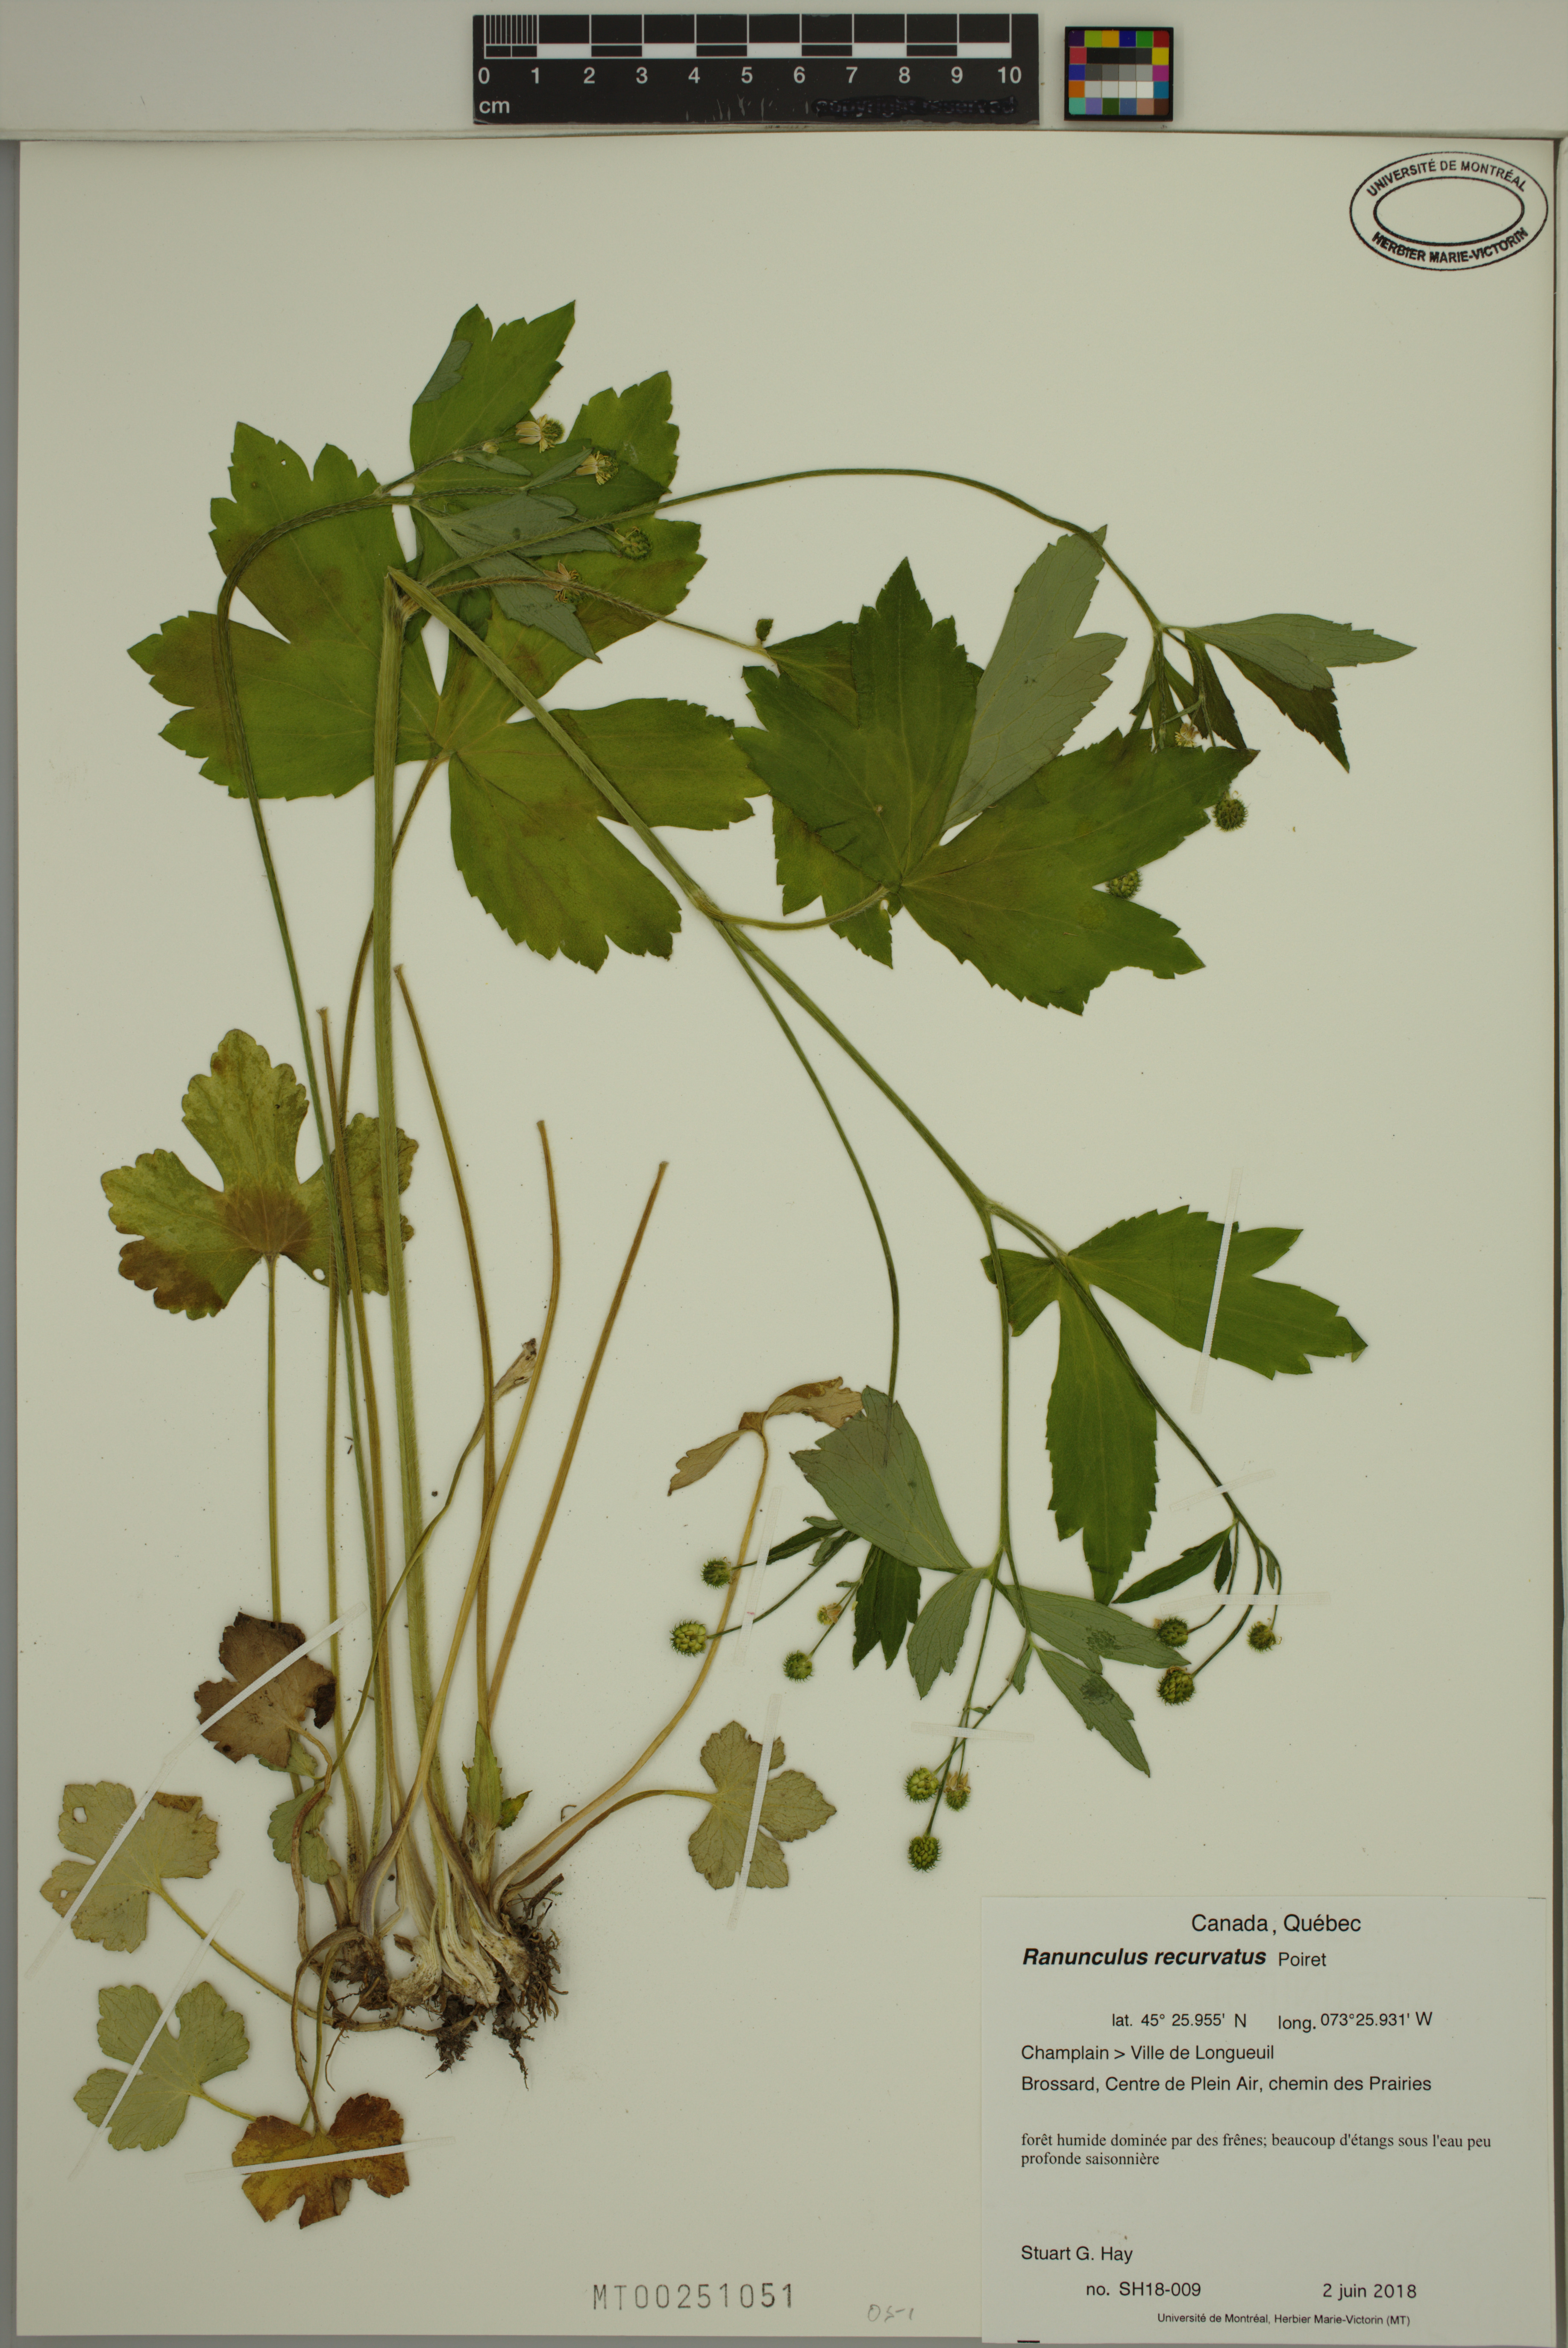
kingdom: Plantae
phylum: Tracheophyta
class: Magnoliopsida
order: Ranunculales
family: Ranunculaceae
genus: Ranunculus
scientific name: Ranunculus recurvatus
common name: Blisterwort
